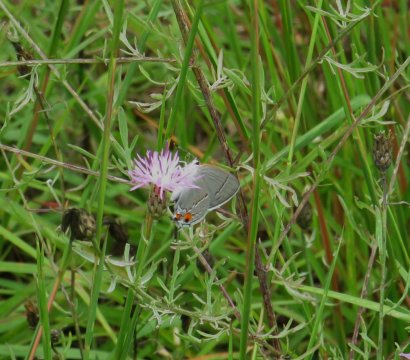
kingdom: Animalia
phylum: Arthropoda
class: Insecta
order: Lepidoptera
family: Lycaenidae
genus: Strymon
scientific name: Strymon melinus
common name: Gray Hairstreak
